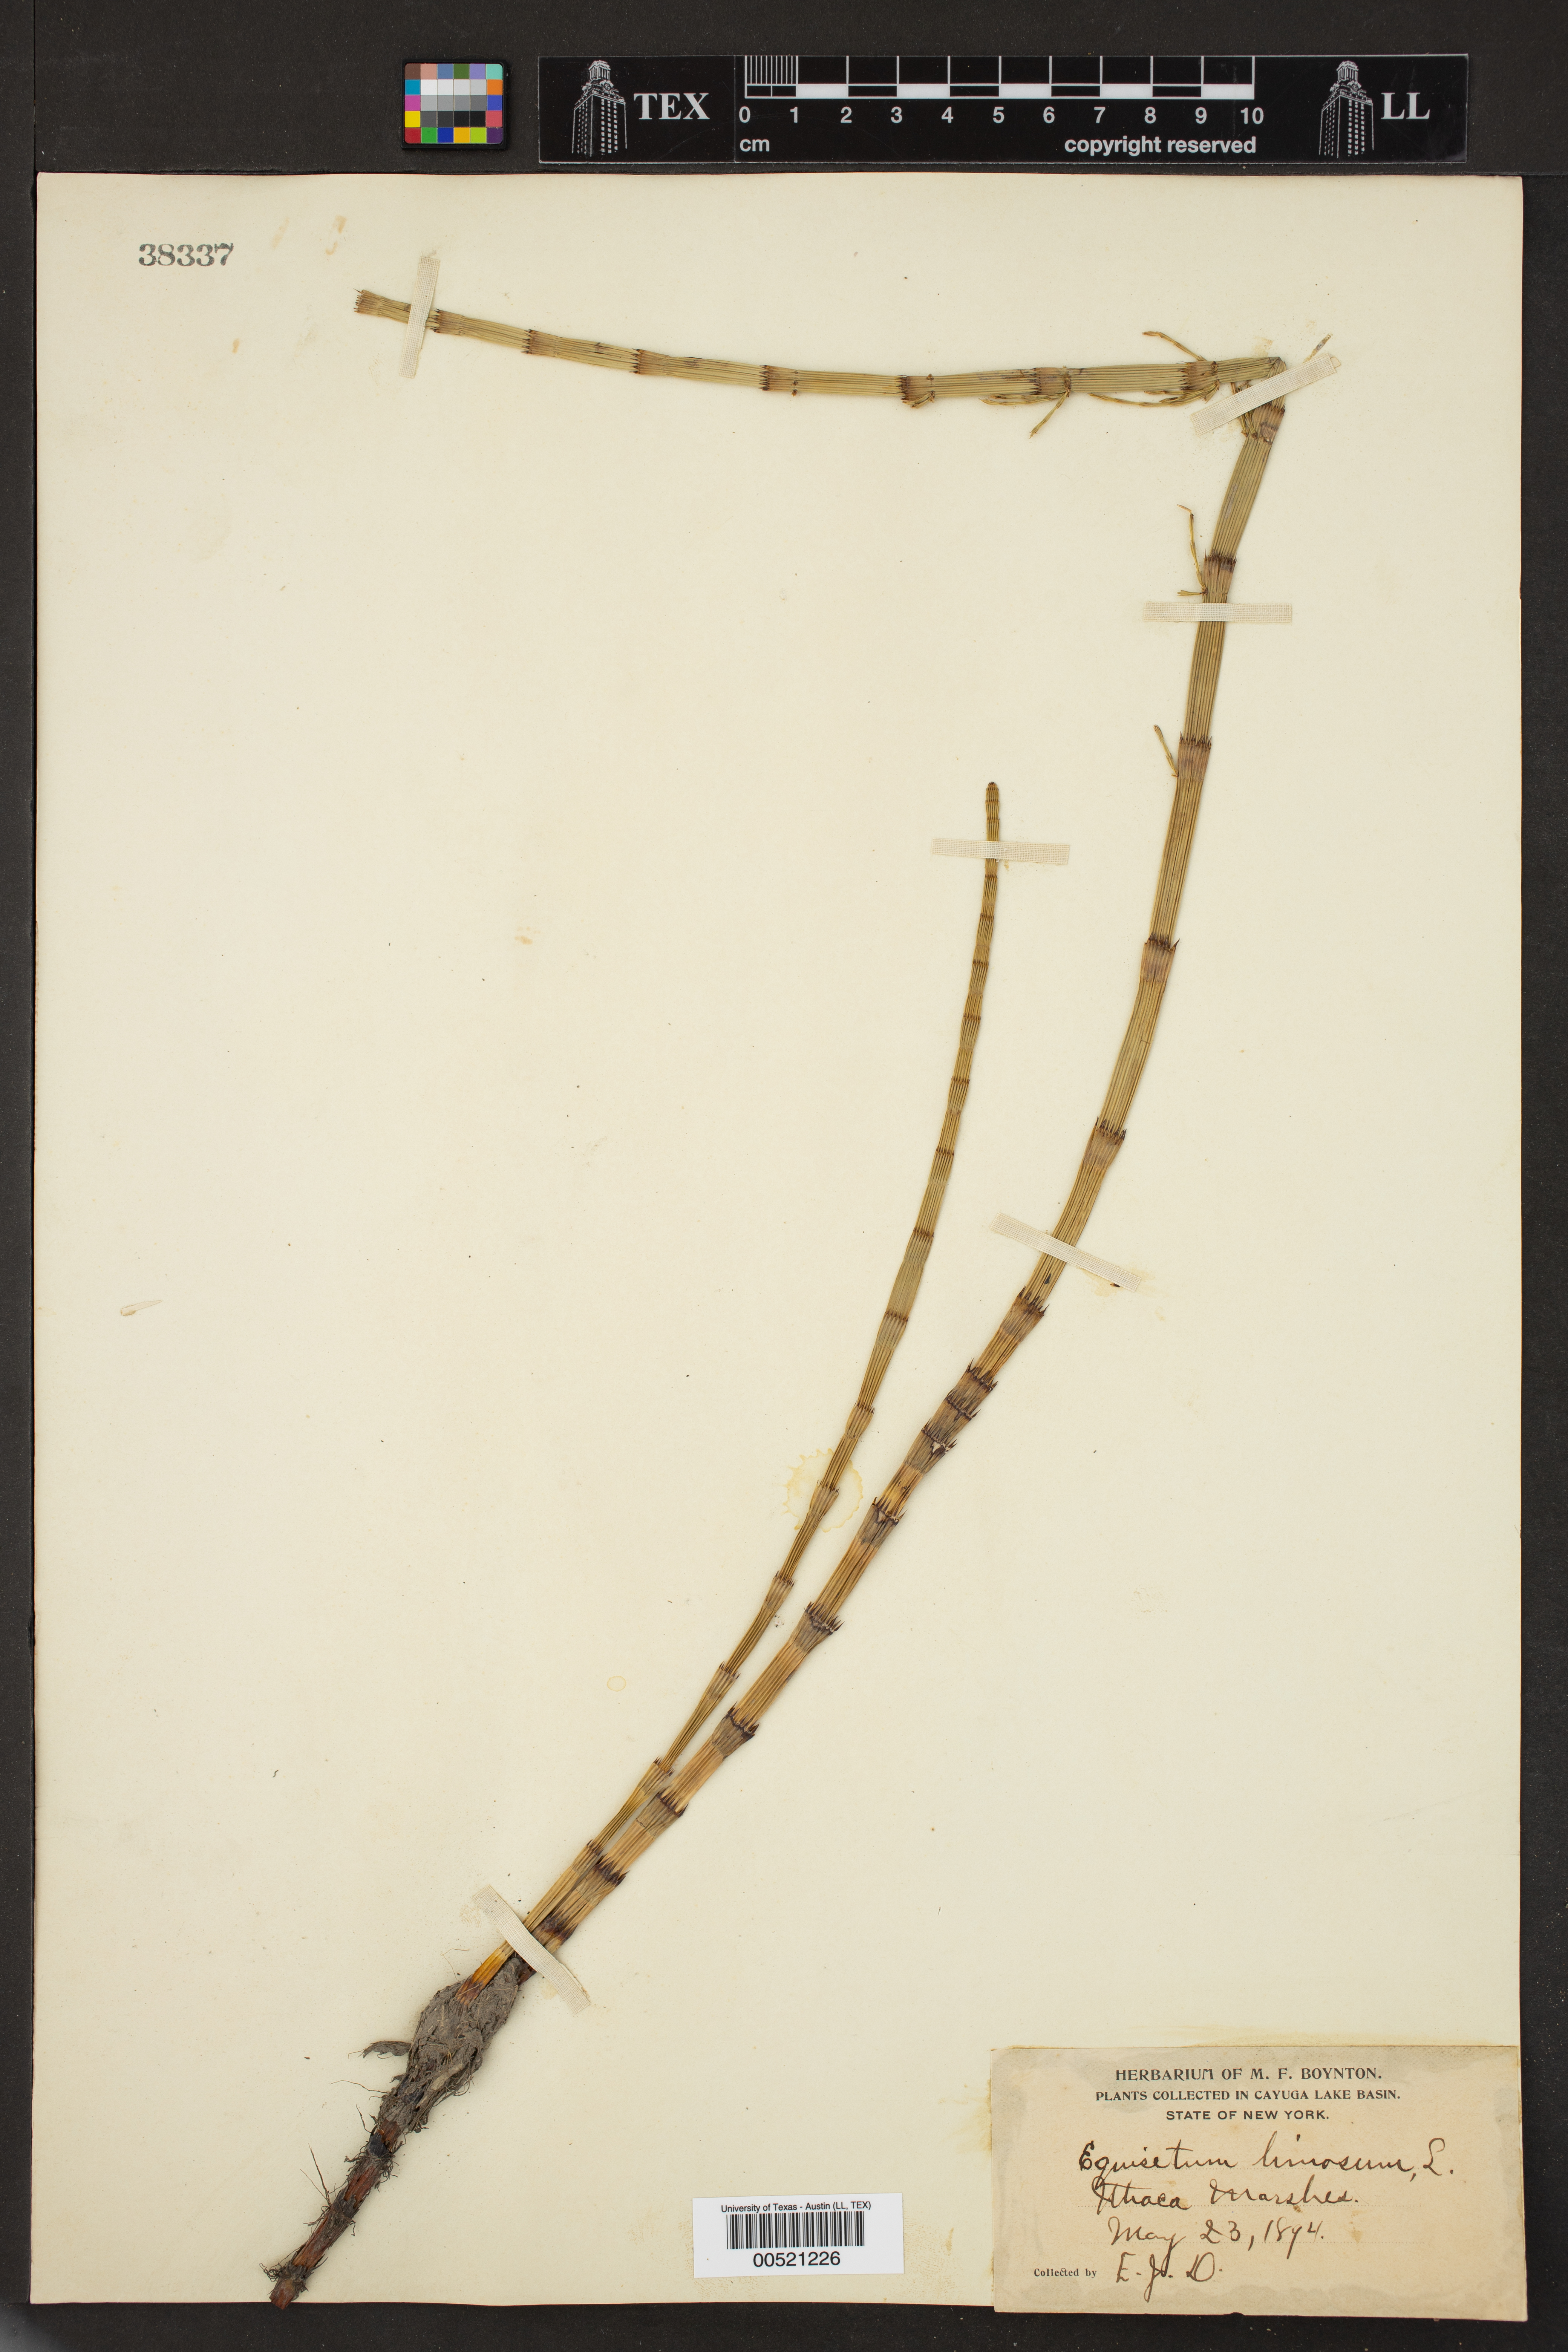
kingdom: Plantae
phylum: Tracheophyta
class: Polypodiopsida
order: Equisetales
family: Equisetaceae
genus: Equisetum
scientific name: Equisetum fluviatile
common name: Water horsetail
